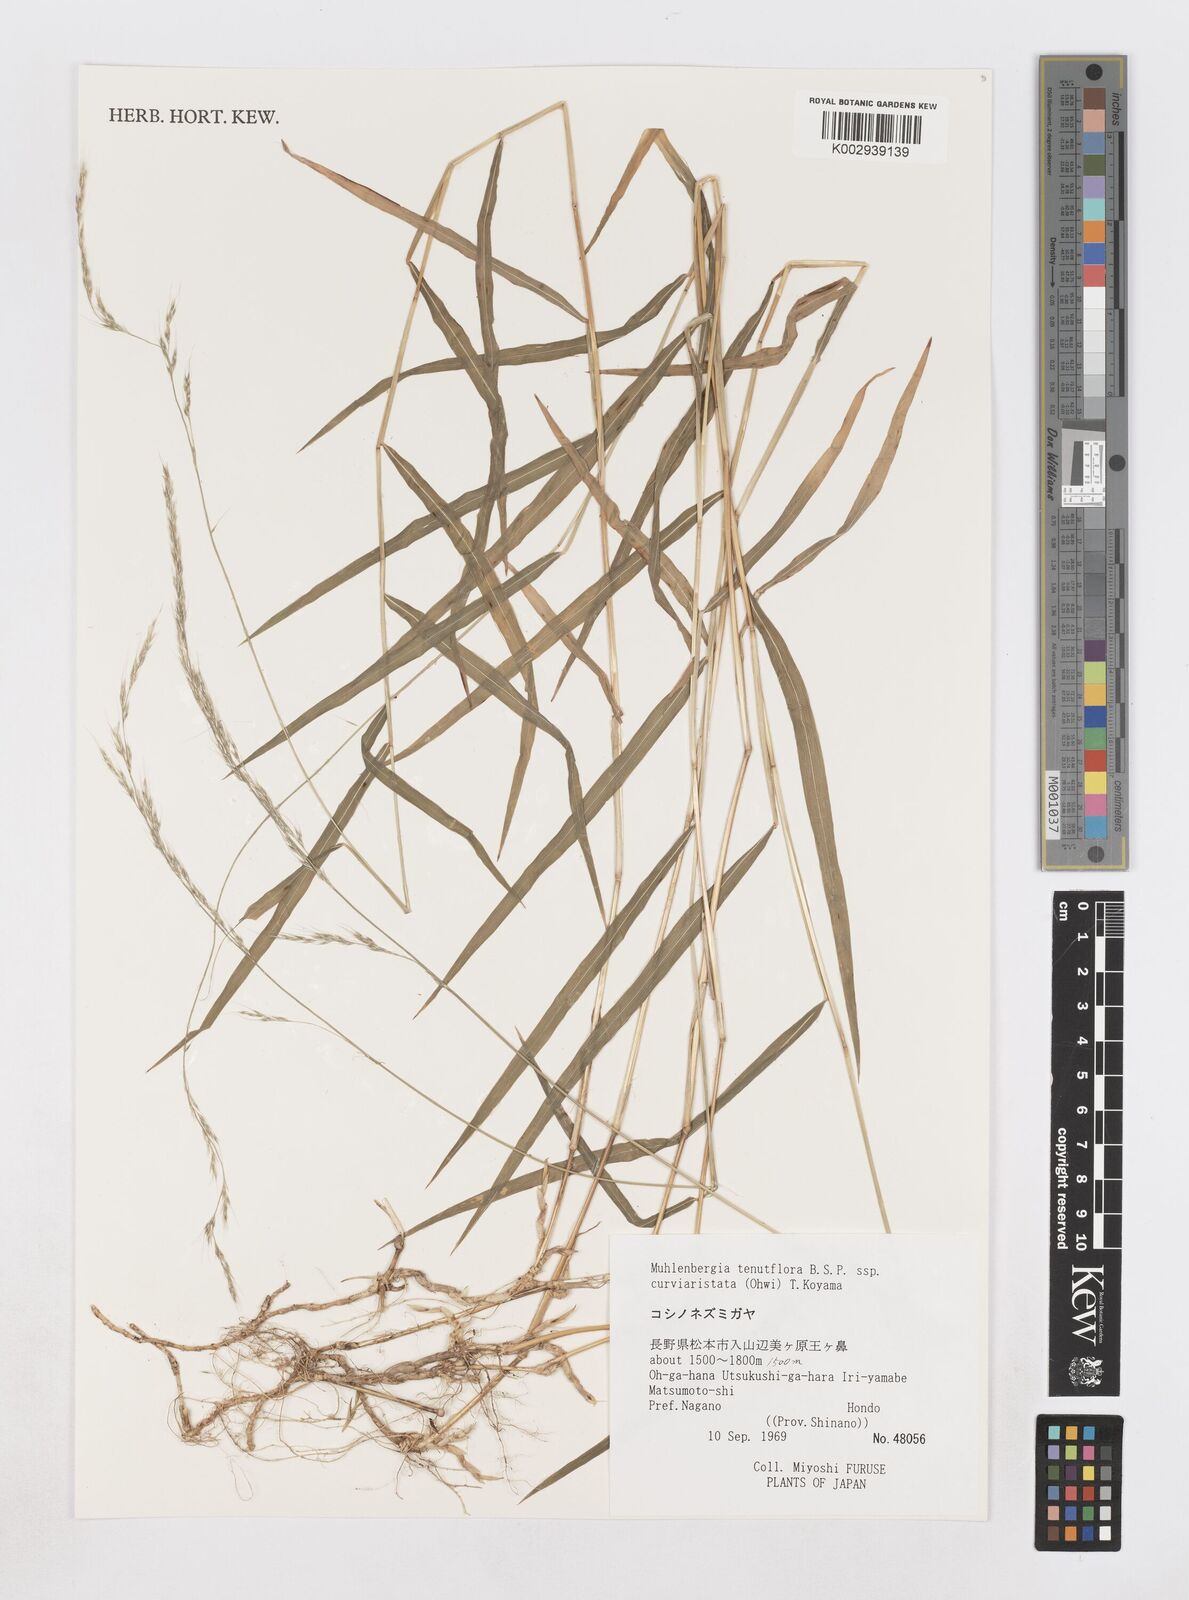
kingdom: Plantae
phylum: Tracheophyta
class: Liliopsida
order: Poales
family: Poaceae
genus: Muhlenbergia
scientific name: Muhlenbergia tenuiflora
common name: Slender muhly
